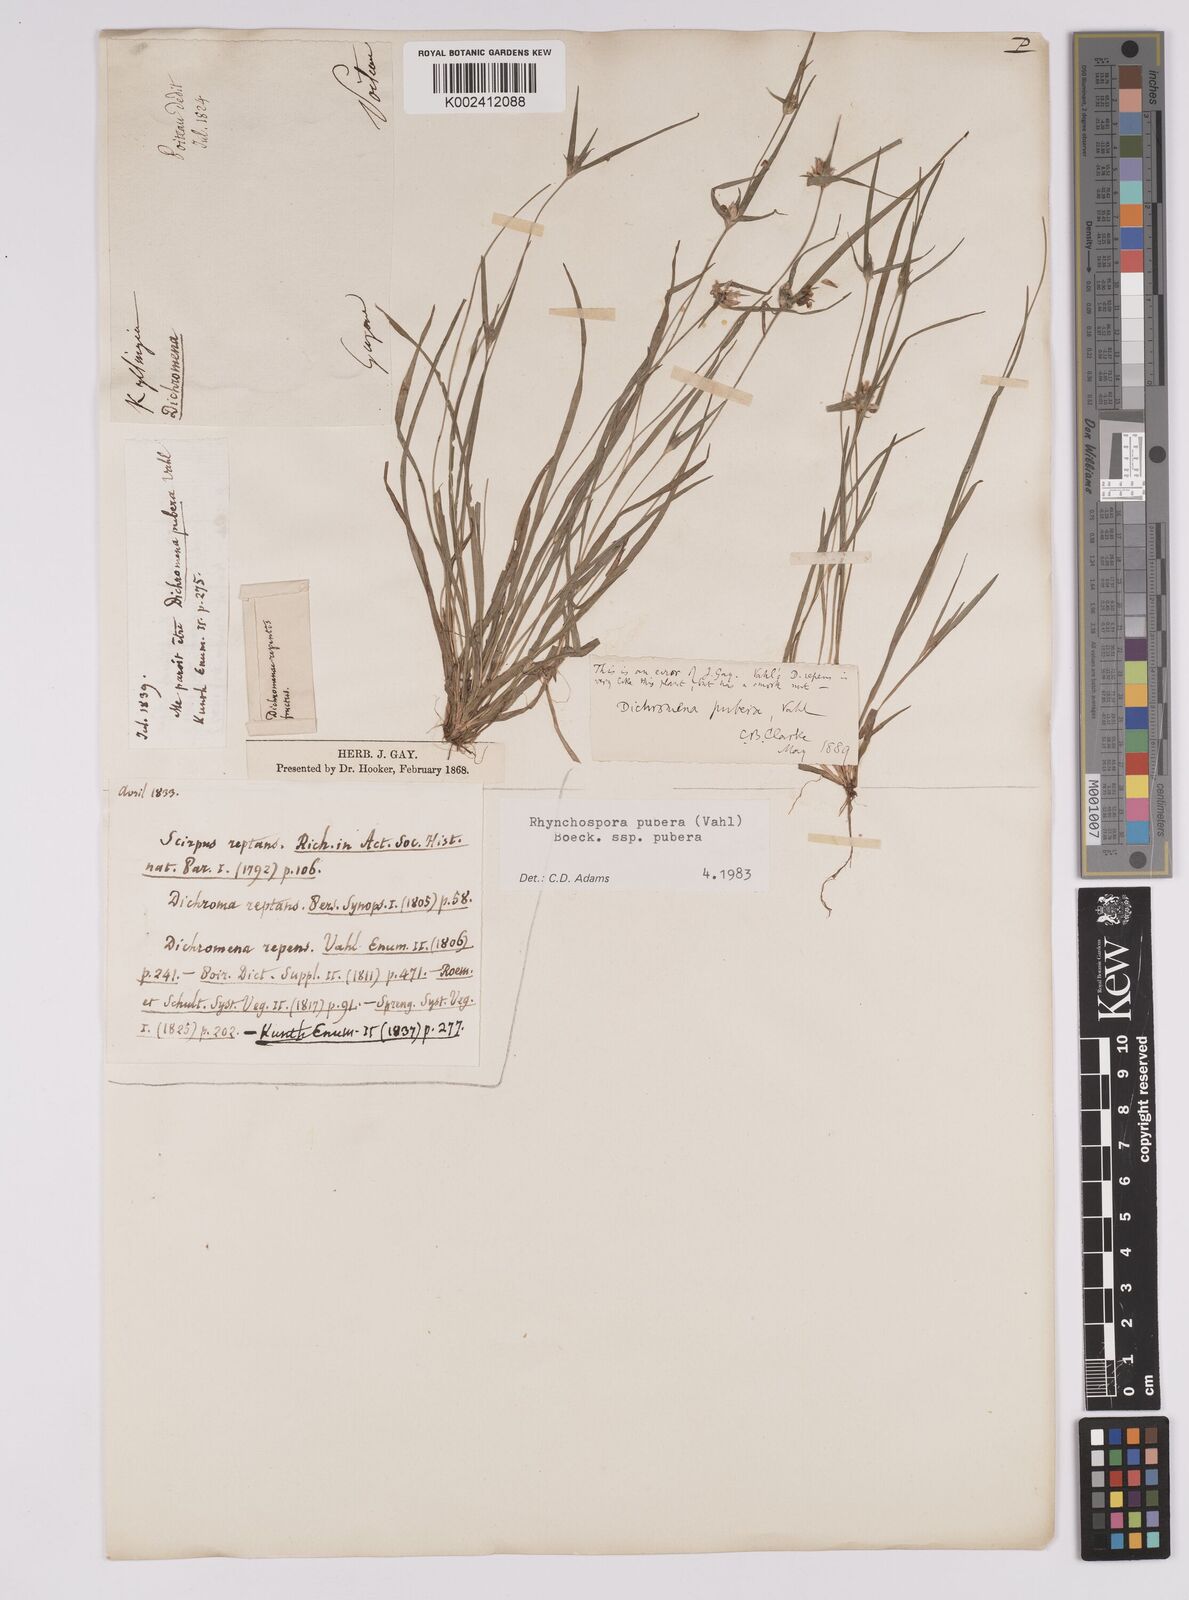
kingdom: Plantae
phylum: Tracheophyta
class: Liliopsida
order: Poales
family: Cyperaceae
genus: Rhynchospora
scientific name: Rhynchospora pubera
